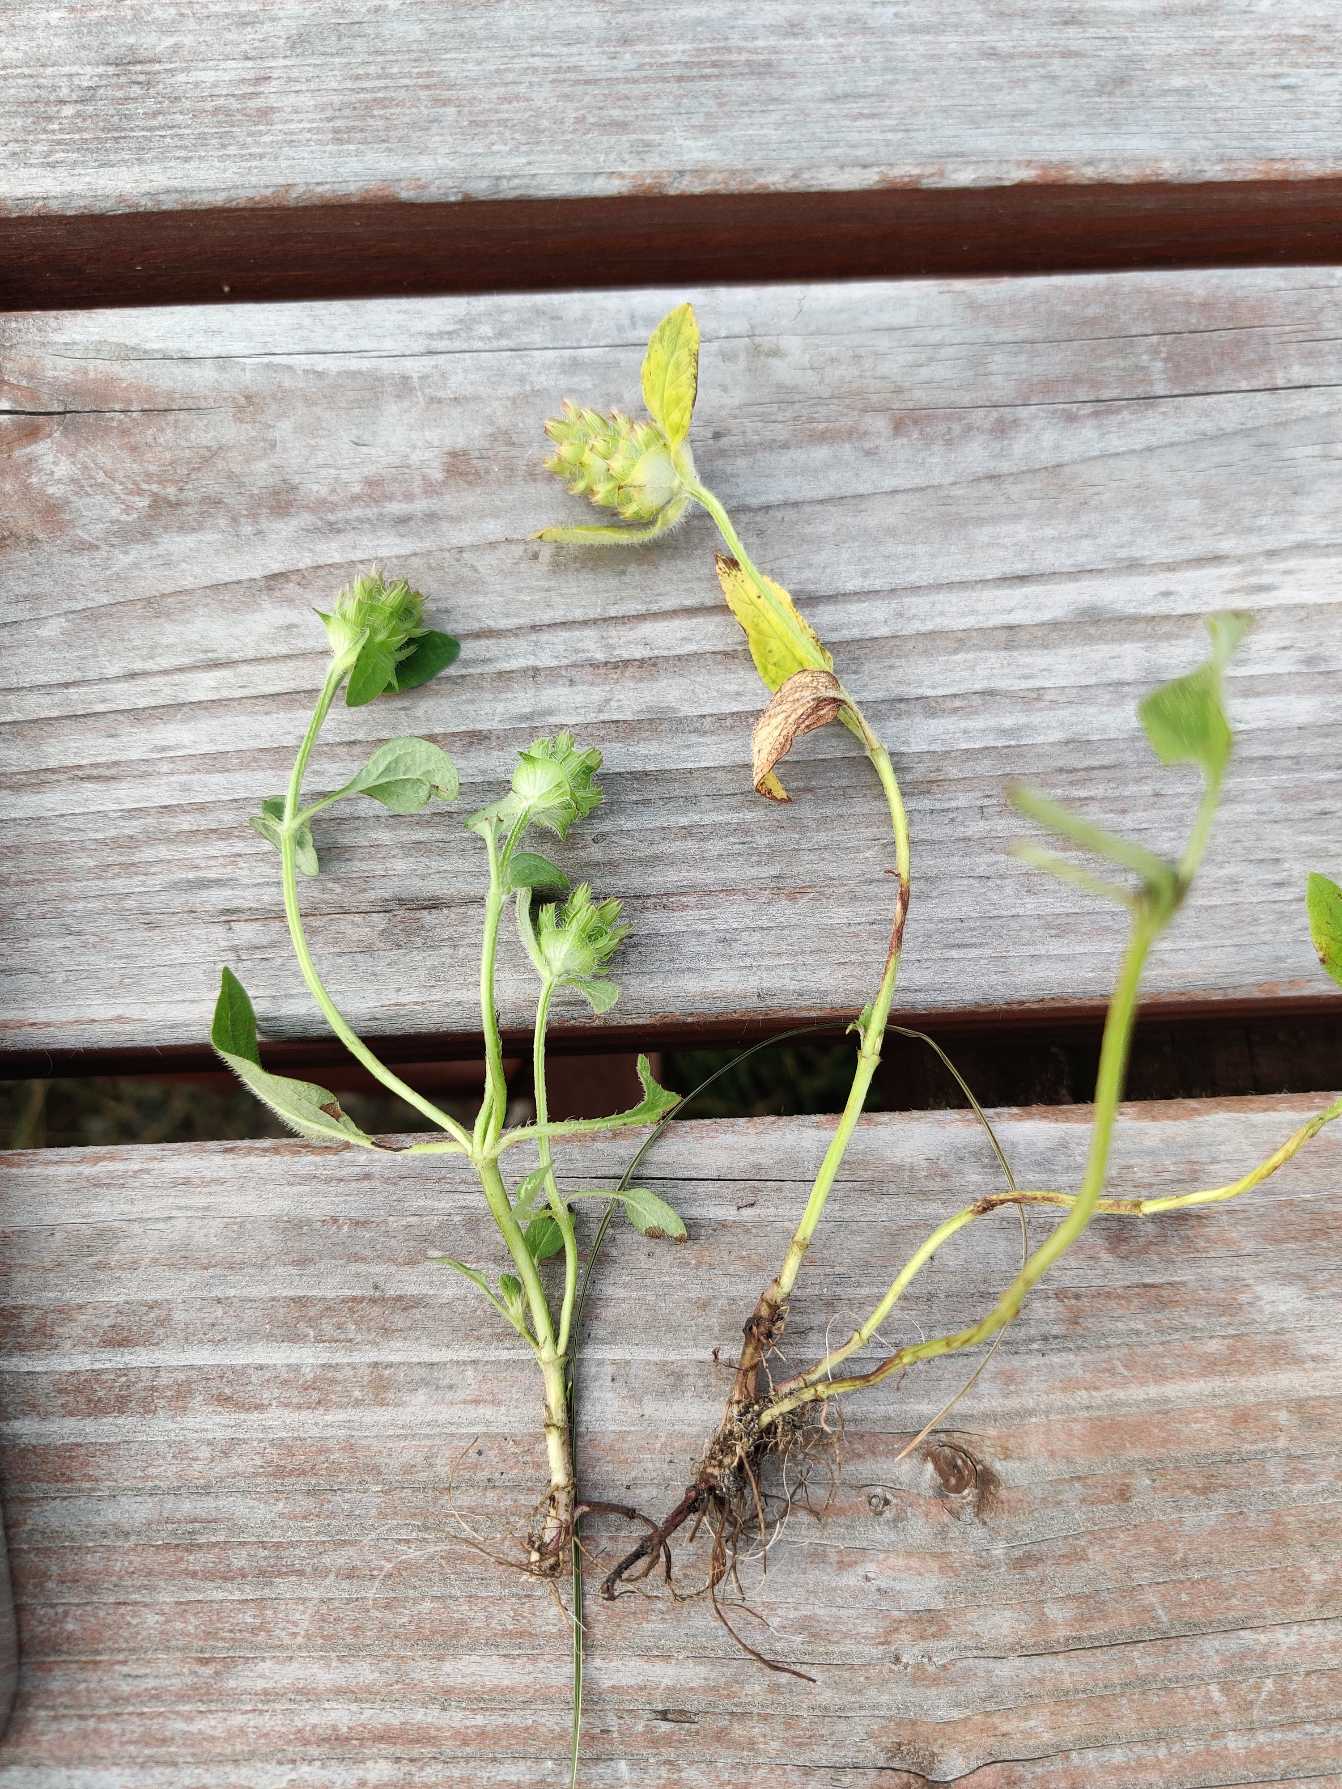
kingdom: Plantae
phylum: Tracheophyta
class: Magnoliopsida
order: Lamiales
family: Lamiaceae
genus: Prunella
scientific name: Prunella vulgaris
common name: Almindelig brunelle
